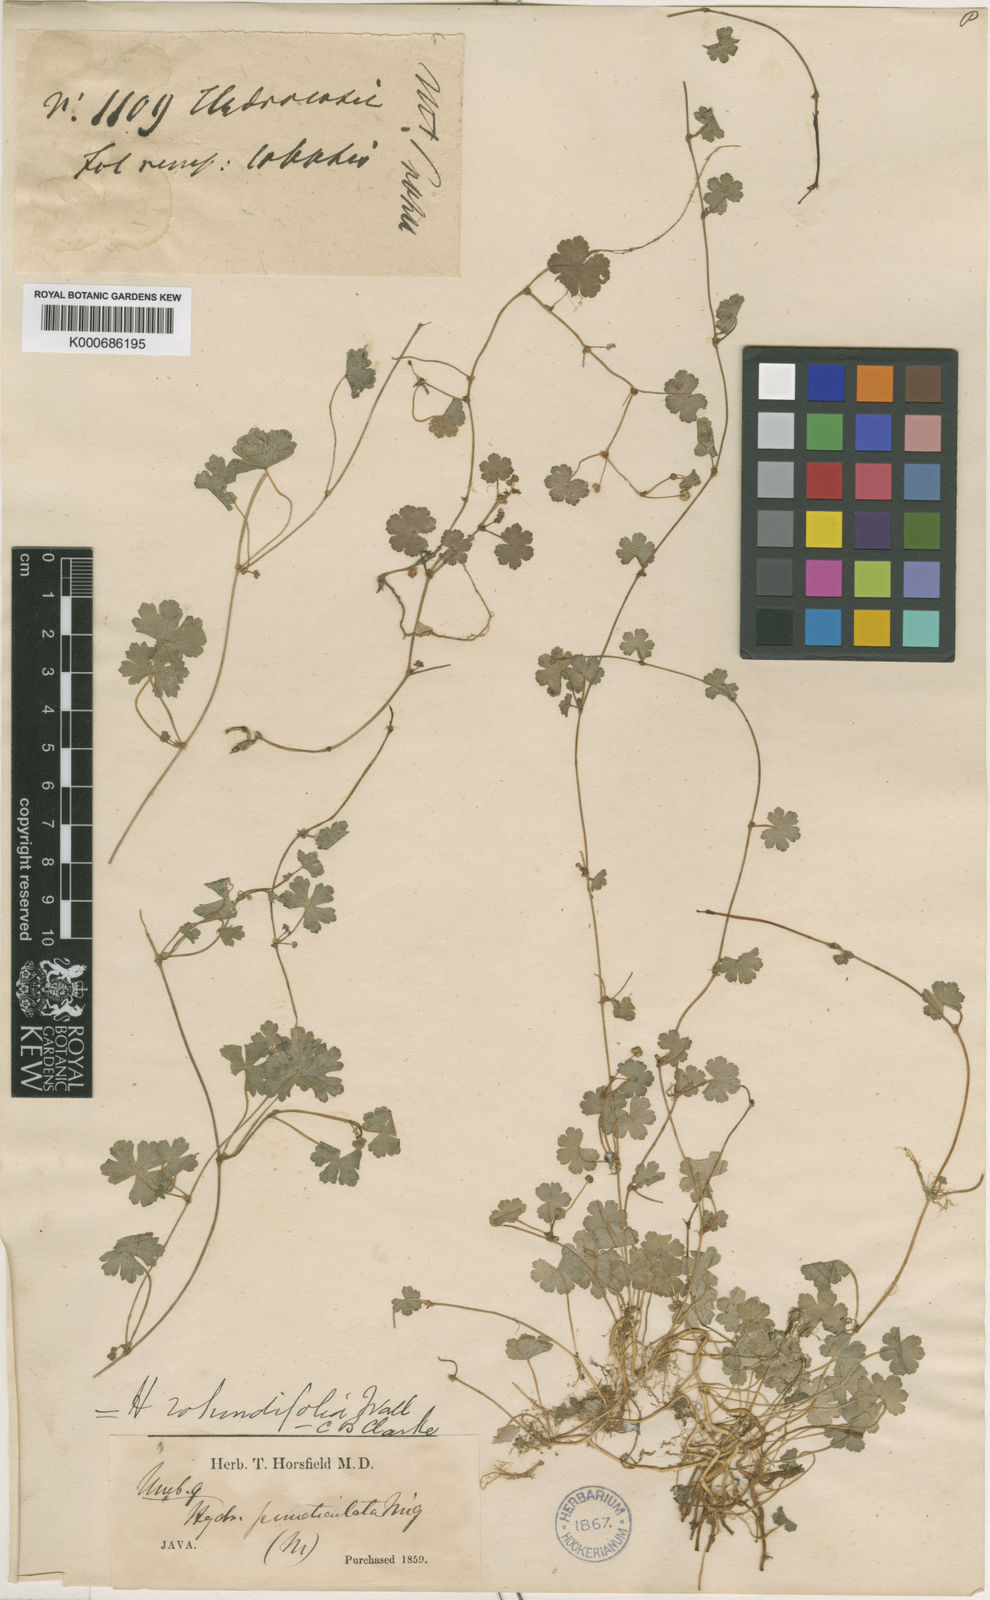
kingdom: Plantae
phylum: Tracheophyta
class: Magnoliopsida
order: Apiales
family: Araliaceae
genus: Hydrocotyle
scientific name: Hydrocotyle sibthorpioides
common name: Lawn marshpennywort
